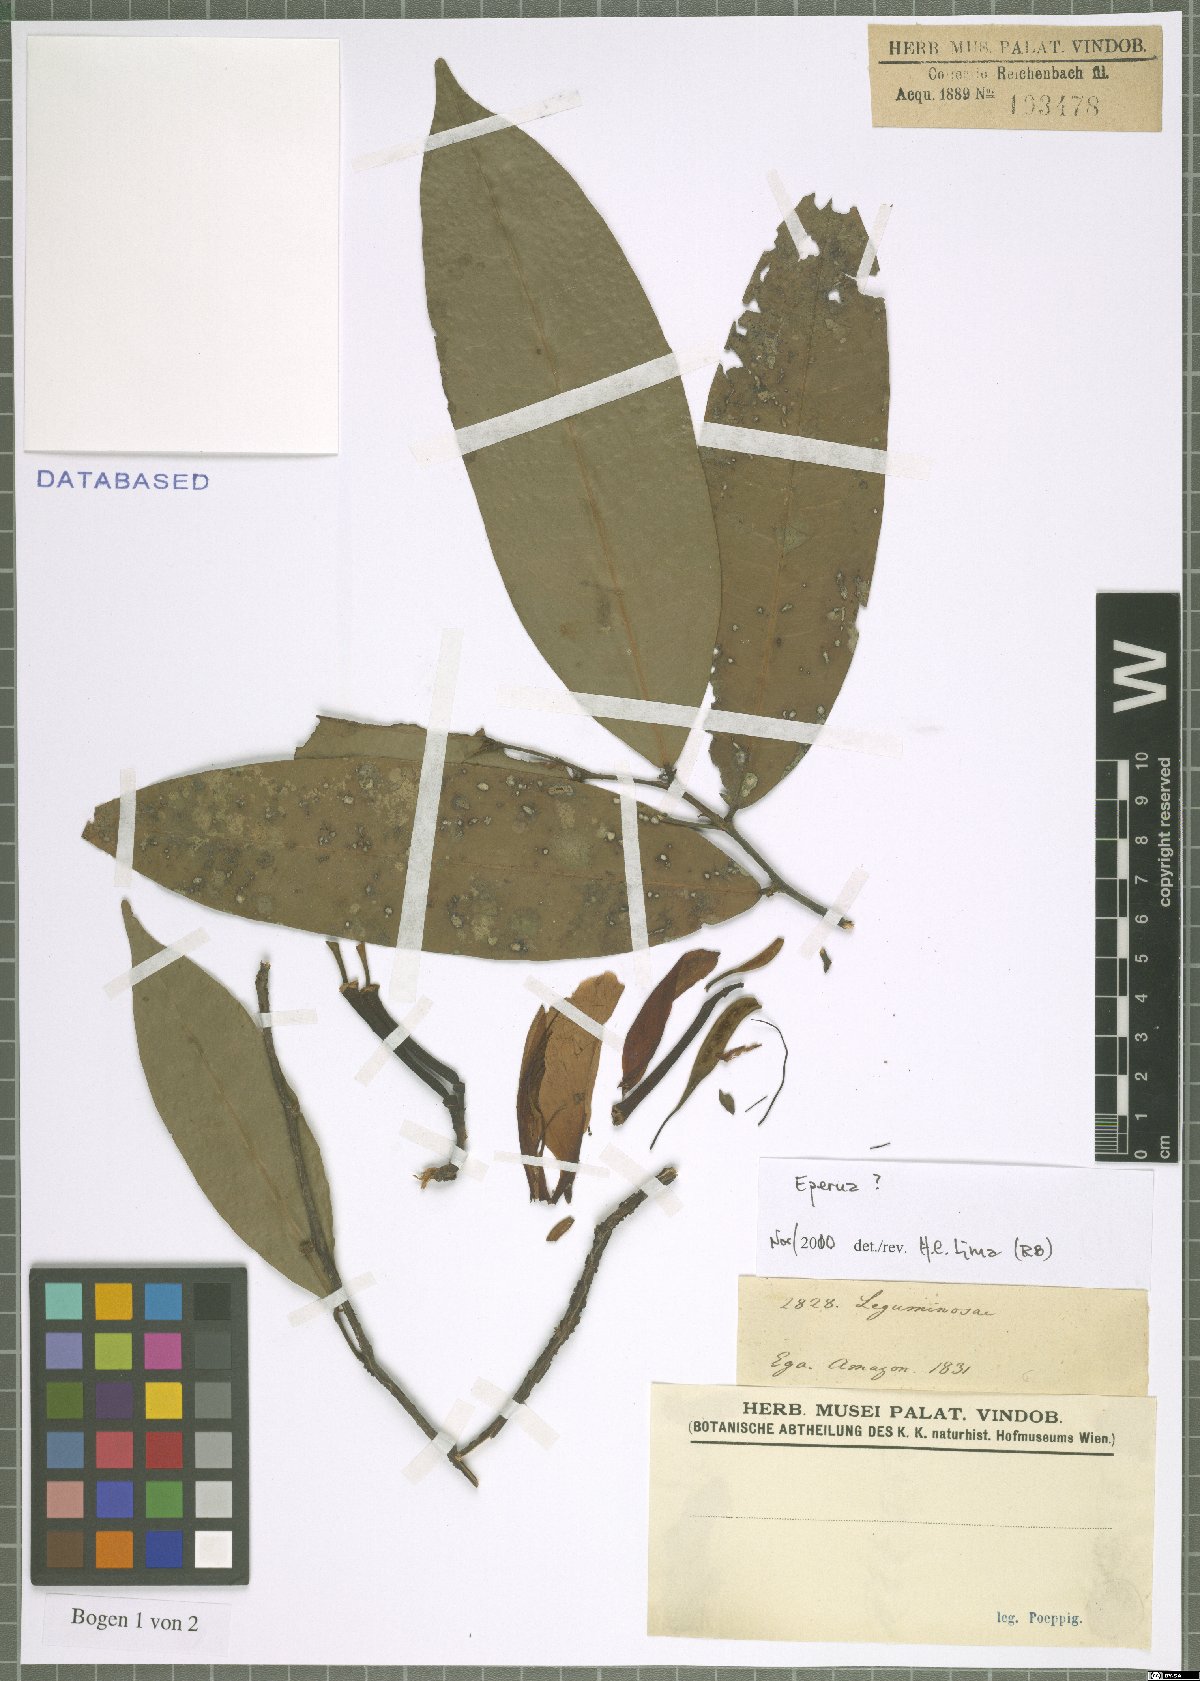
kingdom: Plantae
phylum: Tracheophyta
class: Magnoliopsida
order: Fabales
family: Fabaceae
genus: Eperua
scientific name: Eperua
